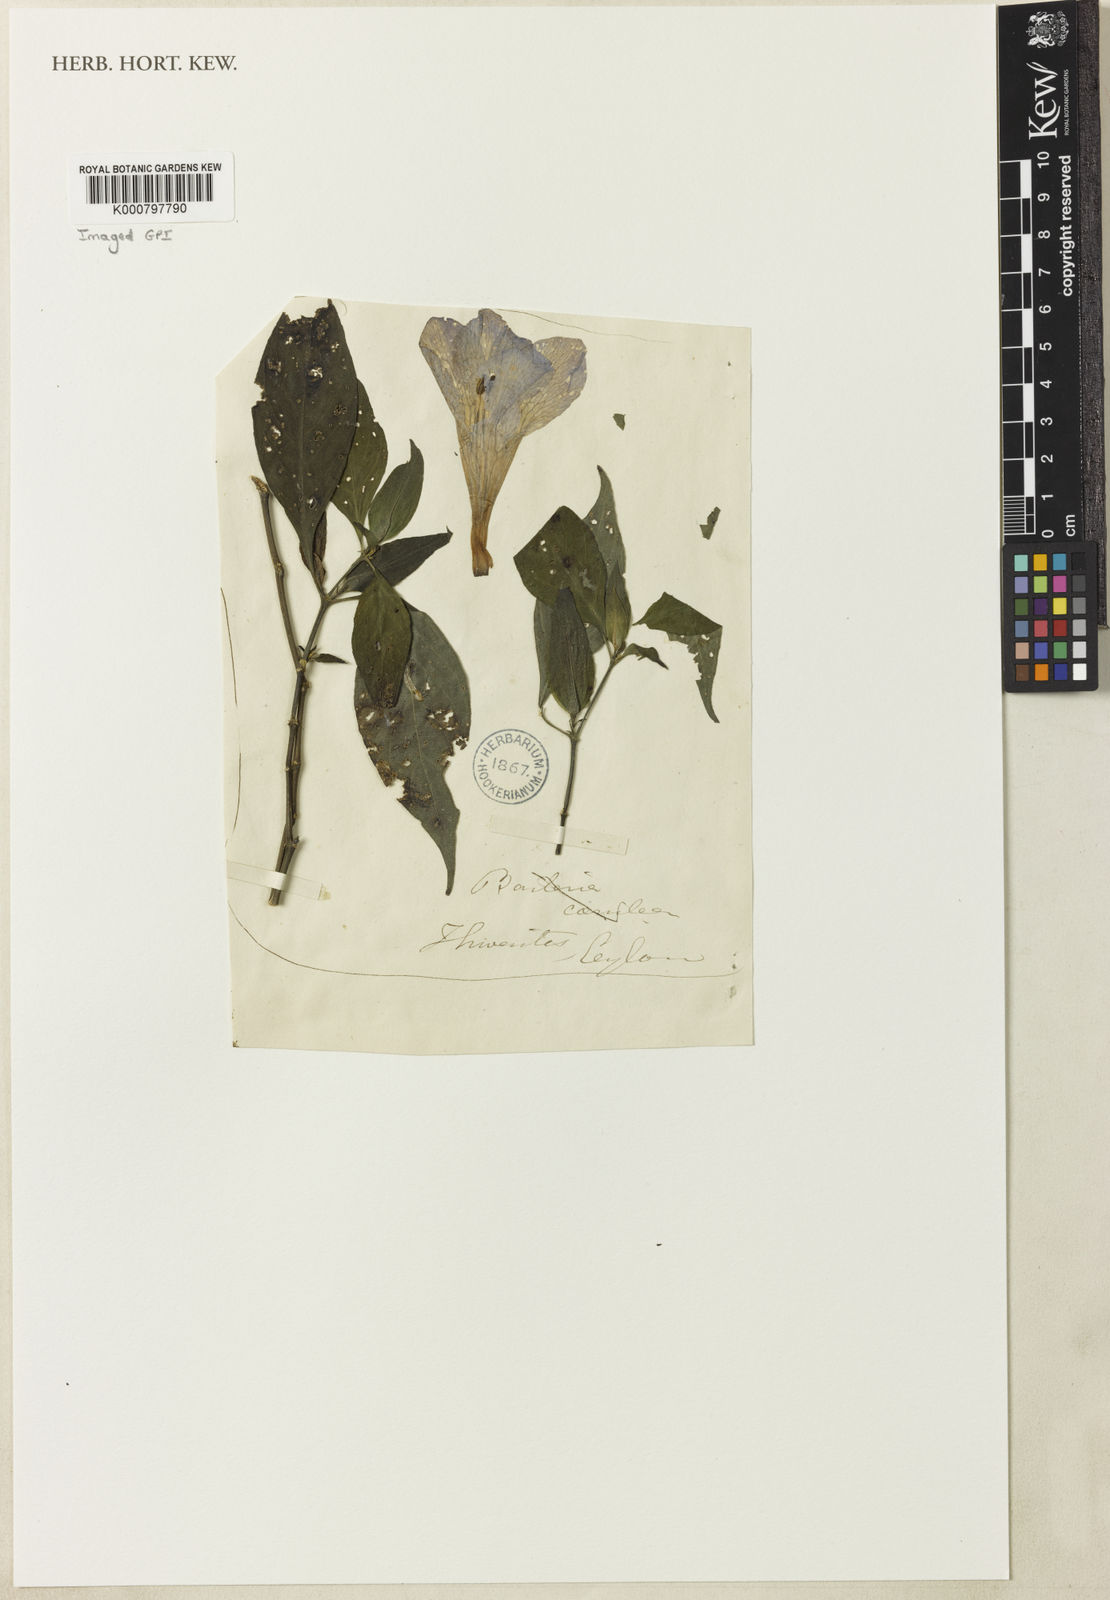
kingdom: Plantae
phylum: Tracheophyta
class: Magnoliopsida
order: Lamiales
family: Acanthaceae
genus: Barleria
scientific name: Barleria arnottiana
